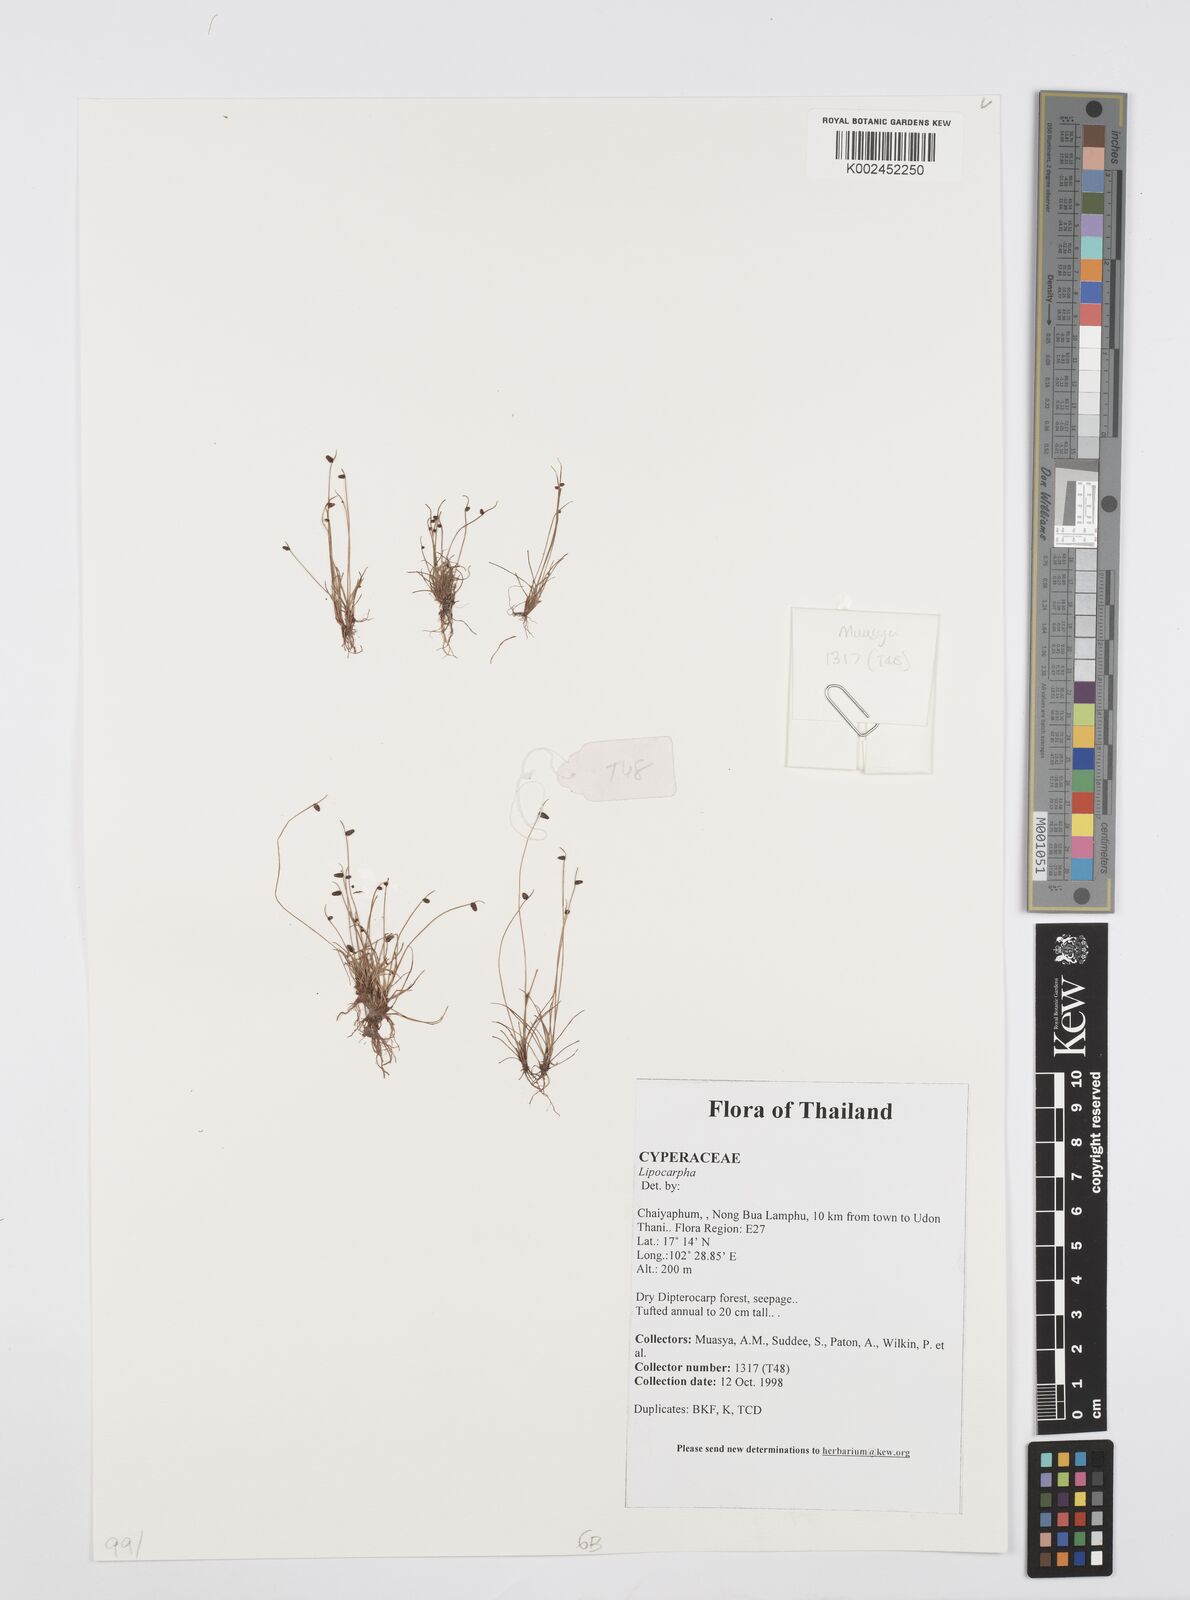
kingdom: Plantae
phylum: Tracheophyta
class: Liliopsida
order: Poales
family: Cyperaceae
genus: Cyperus
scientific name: Cyperus
